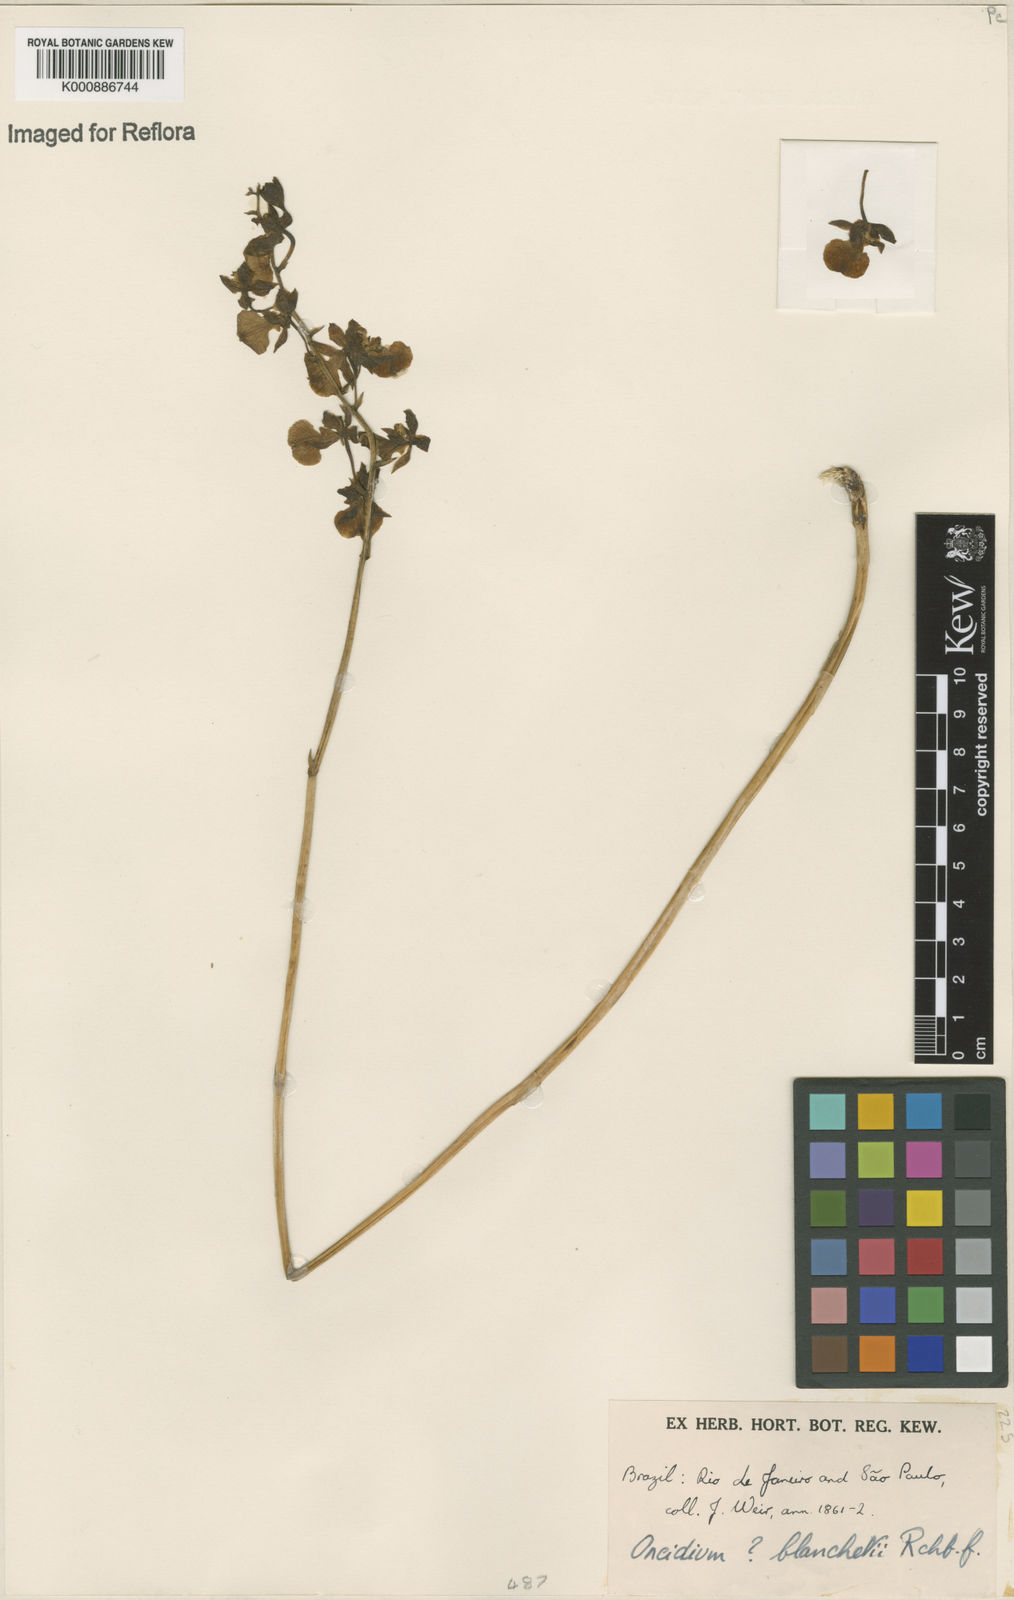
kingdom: Plantae
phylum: Tracheophyta
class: Liliopsida
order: Asparagales
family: Orchidaceae
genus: Gomesa
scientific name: Gomesa barbaceniae
